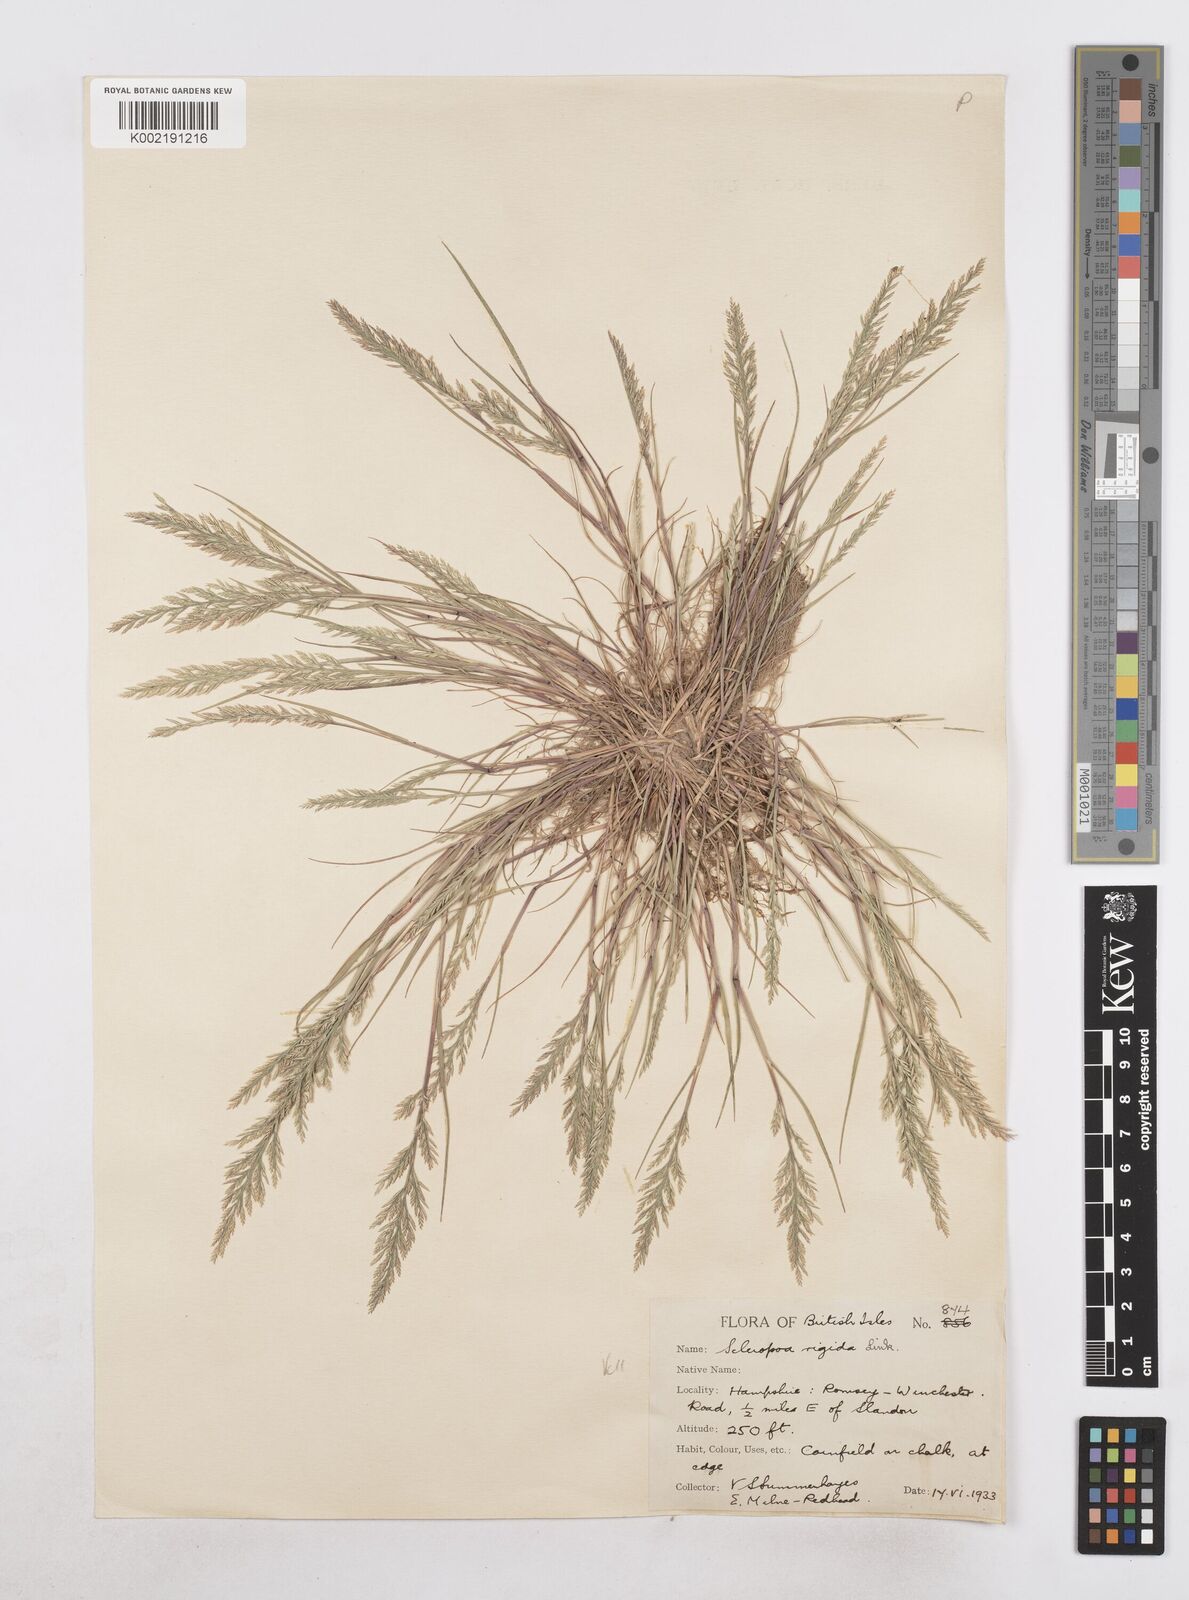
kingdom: Plantae
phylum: Tracheophyta
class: Liliopsida
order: Poales
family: Poaceae
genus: Catapodium
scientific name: Catapodium rigidum
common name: Fern-grass
